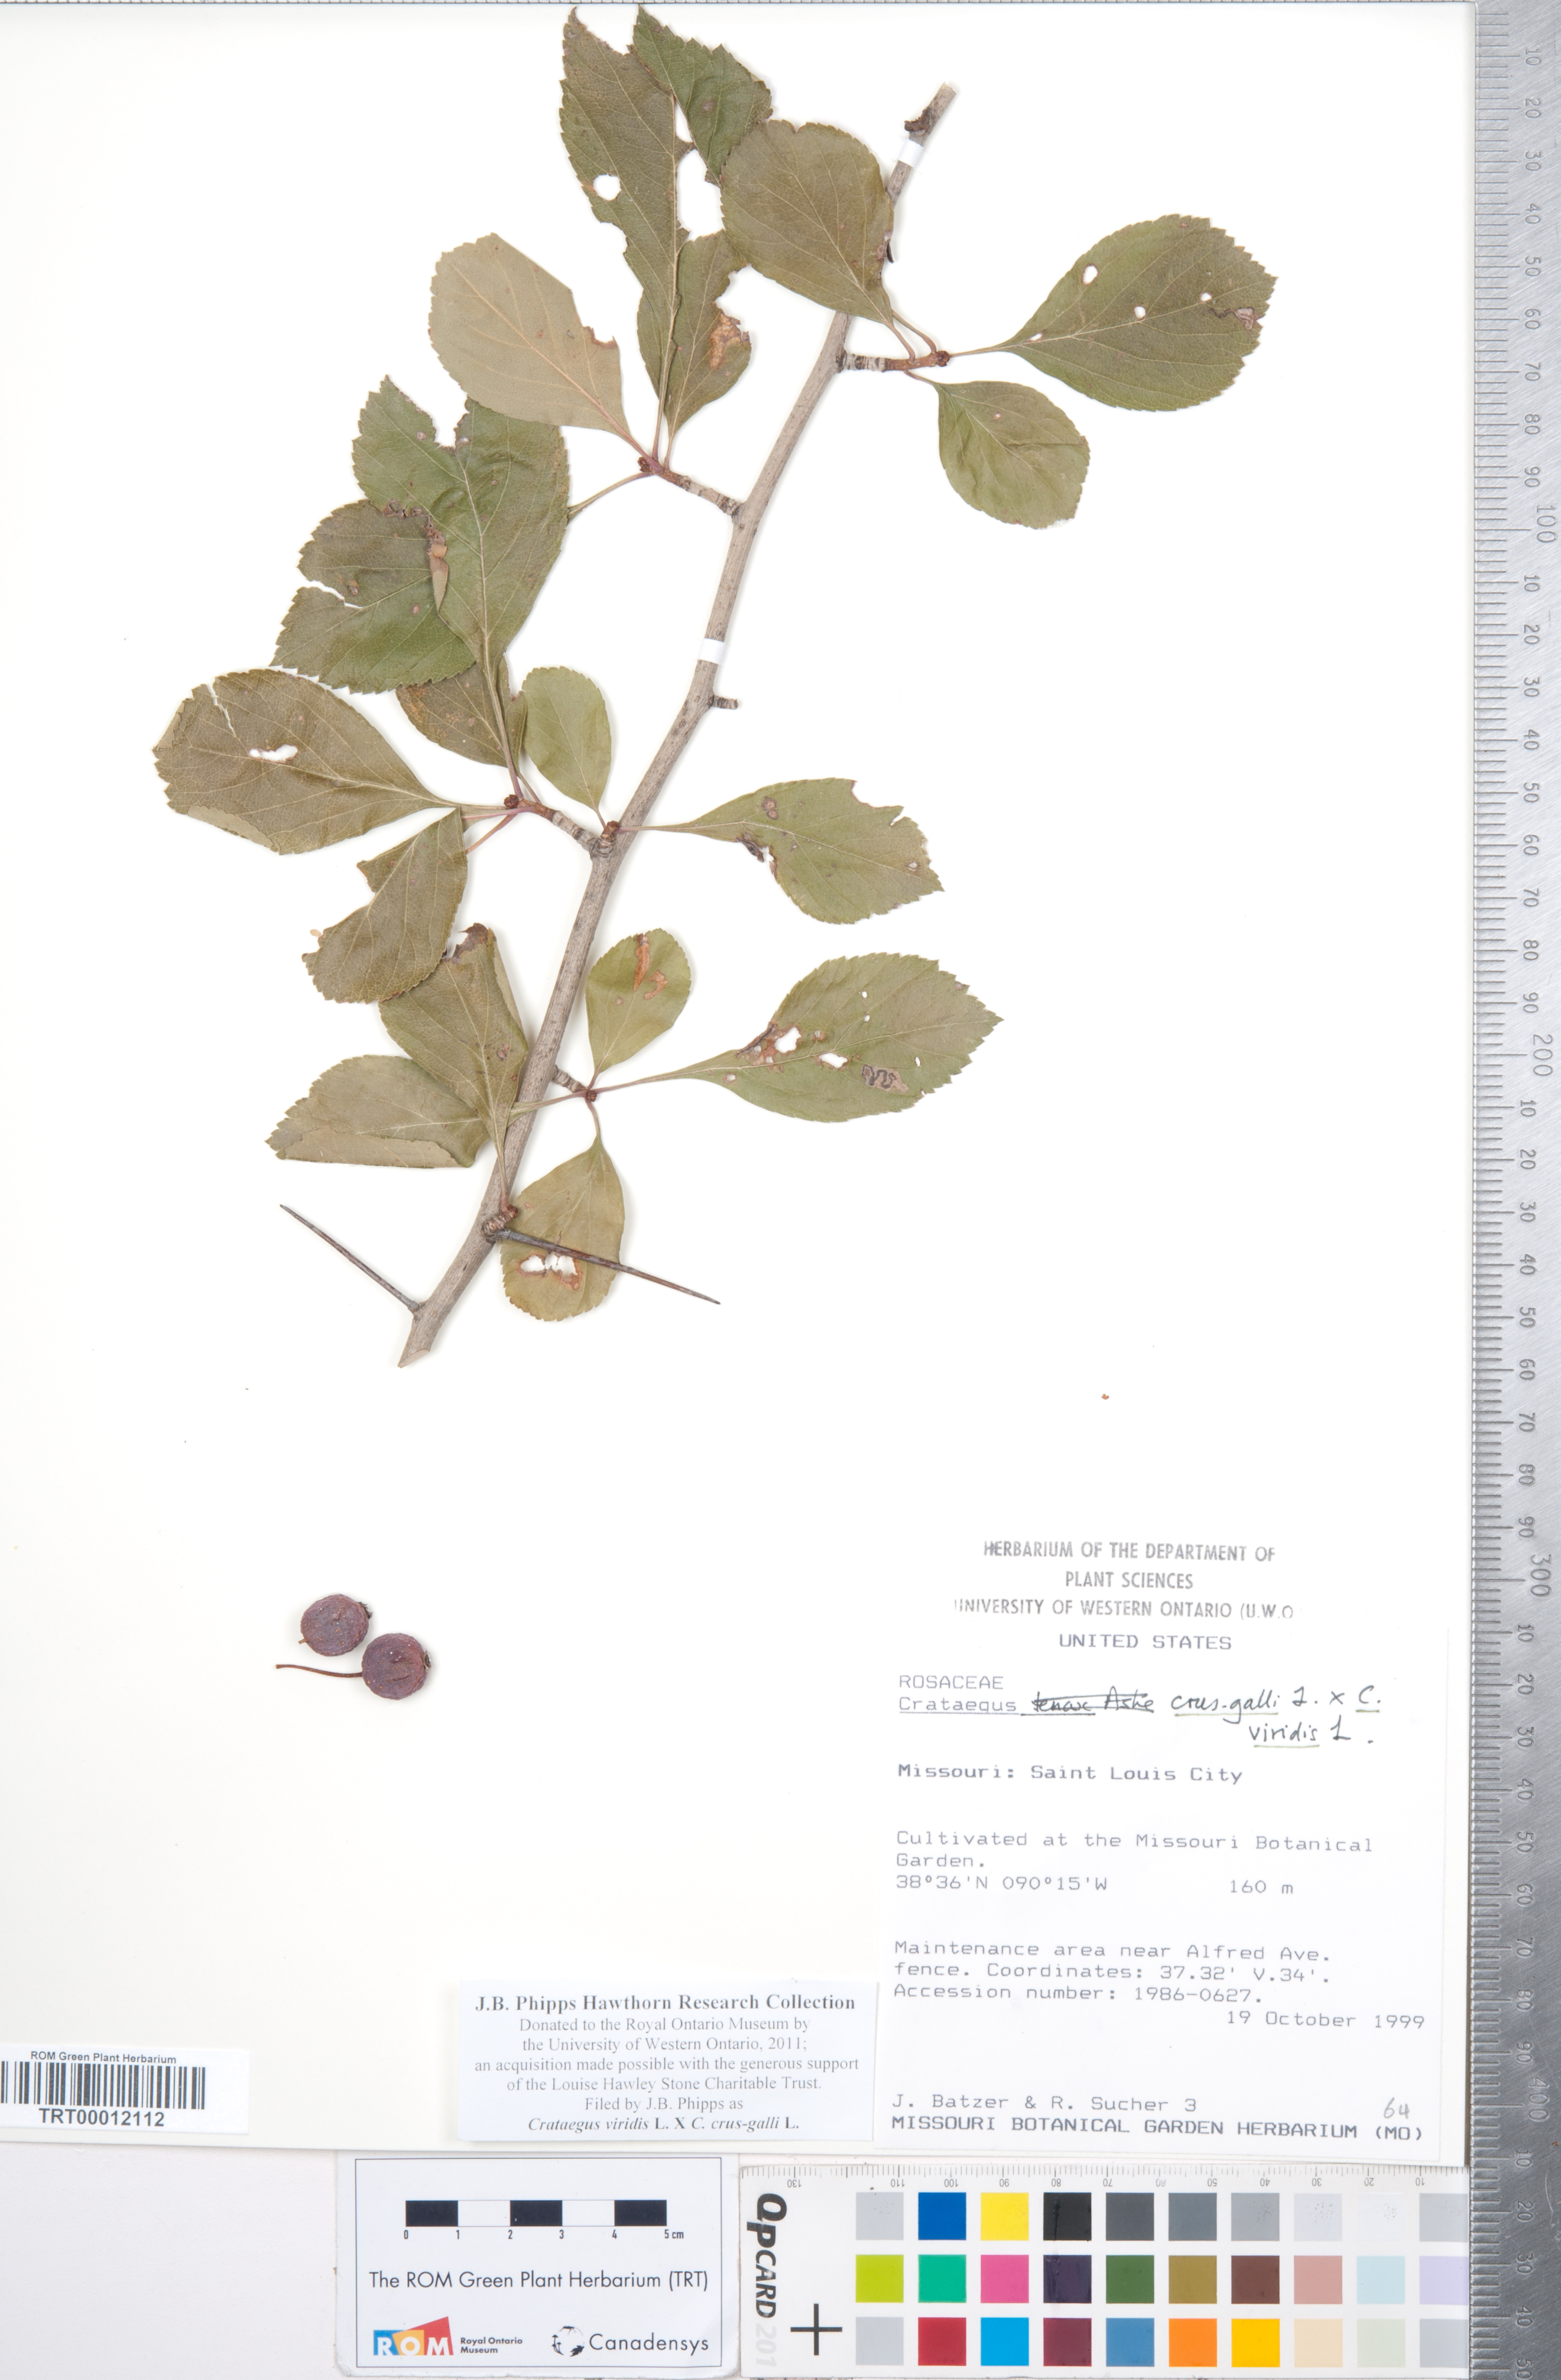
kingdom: Plantae
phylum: Tracheophyta
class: Magnoliopsida
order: Rosales
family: Rosaceae
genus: Crataegus
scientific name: Crataegus
